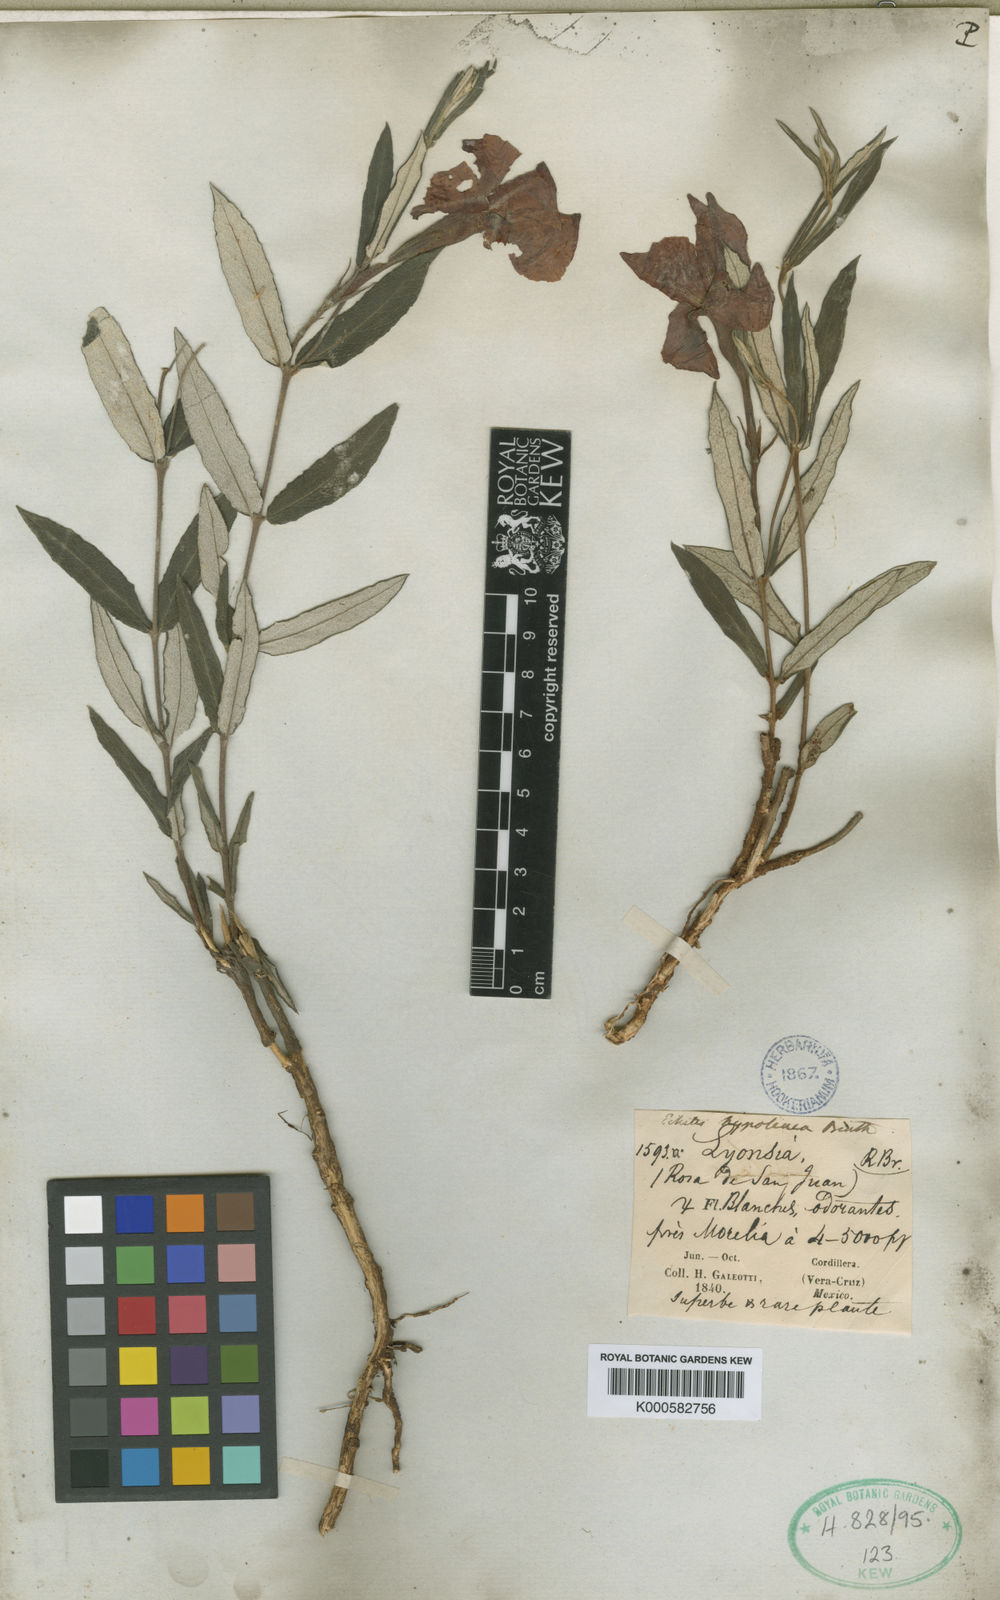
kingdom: Plantae
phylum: Tracheophyta
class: Magnoliopsida
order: Gentianales
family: Apocynaceae
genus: Mandevilla
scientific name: Mandevilla hypoleuca
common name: Davis mountain rocktrumpet
